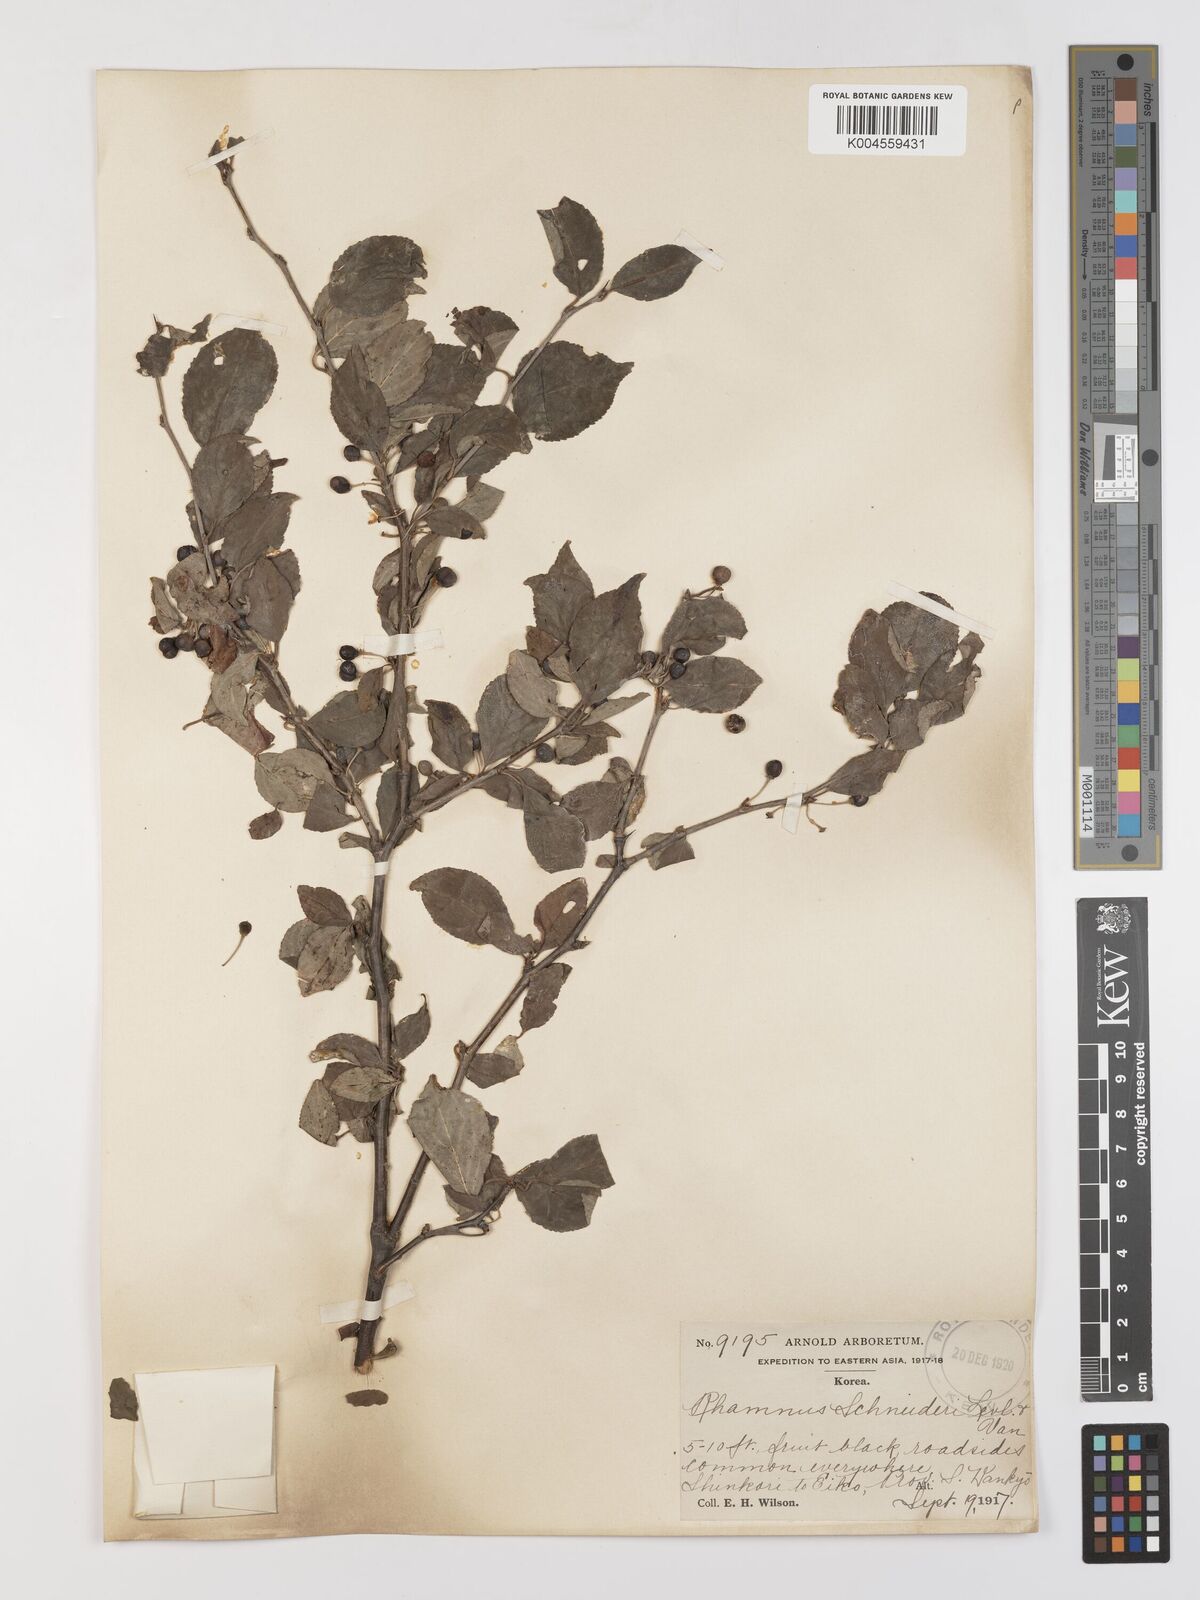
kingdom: Plantae
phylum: Tracheophyta
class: Magnoliopsida
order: Rosales
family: Rhamnaceae
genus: Rhamnus
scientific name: Rhamnus schneideri
